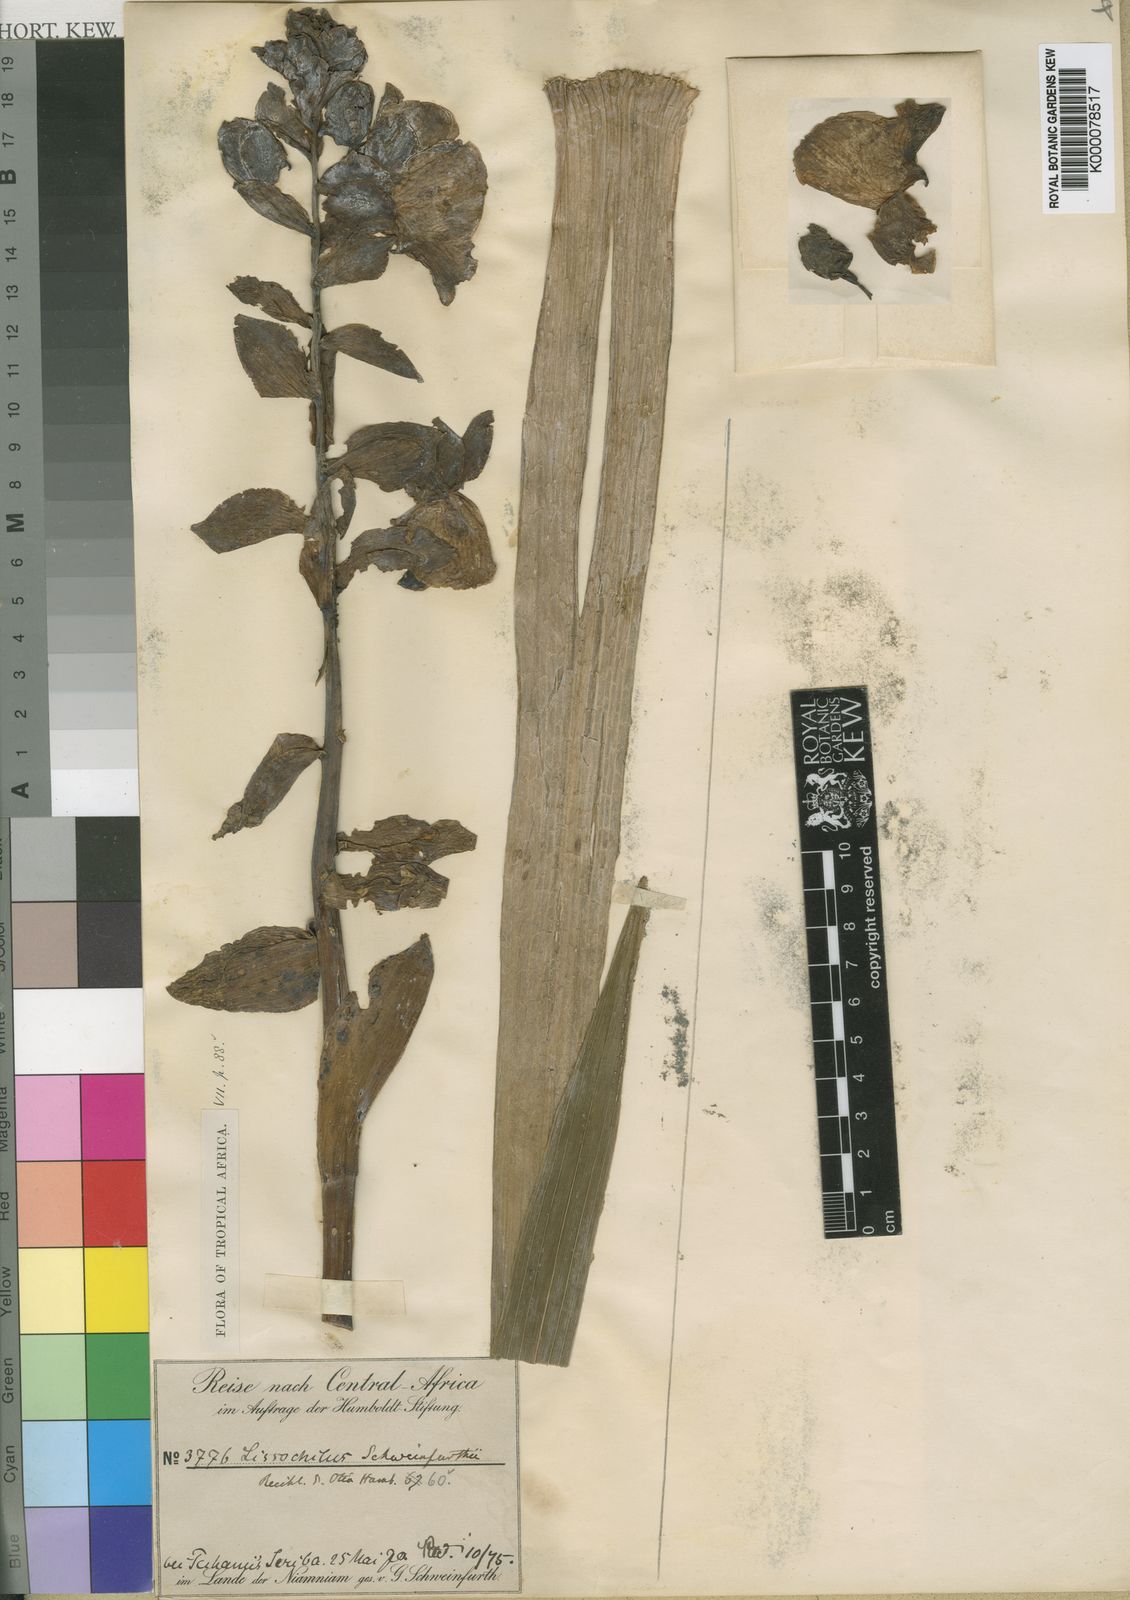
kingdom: Plantae
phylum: Tracheophyta
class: Liliopsida
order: Asparagales
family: Orchidaceae
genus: Eulophia
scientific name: Eulophia latilabris
